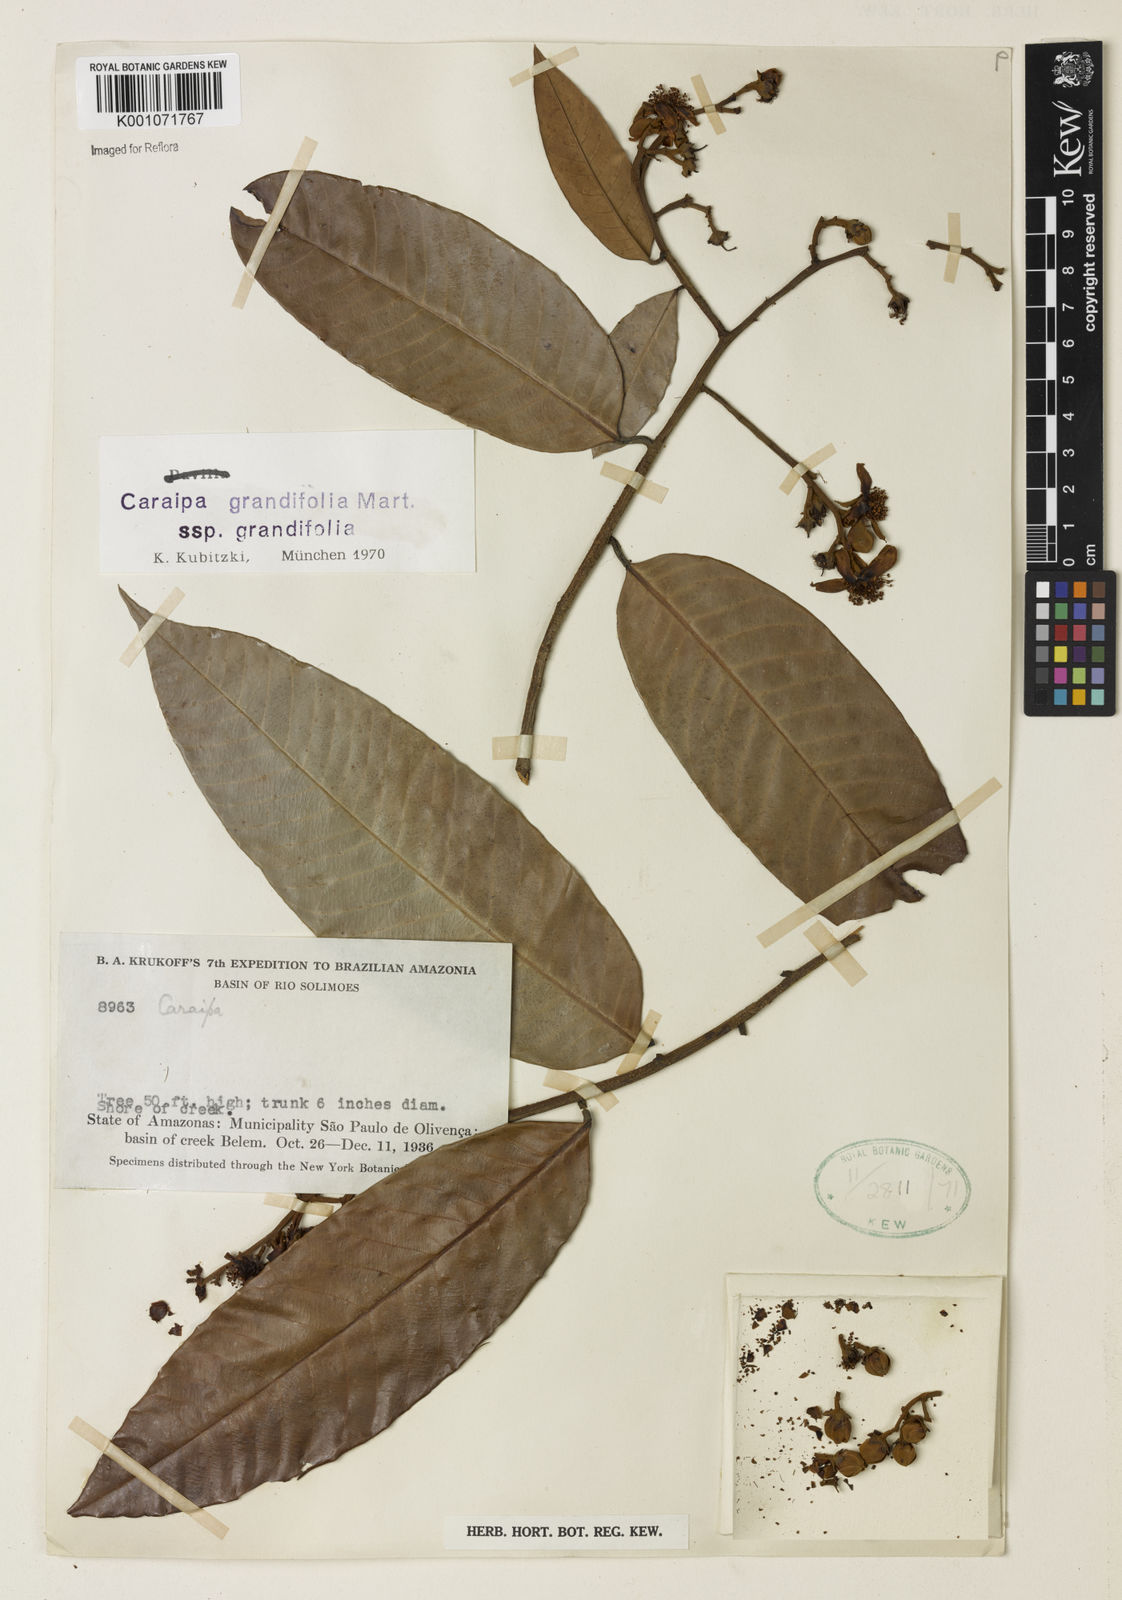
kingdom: Plantae
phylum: Tracheophyta
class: Magnoliopsida
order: Malpighiales
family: Calophyllaceae
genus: Caraipa
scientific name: Caraipa grandifolia
